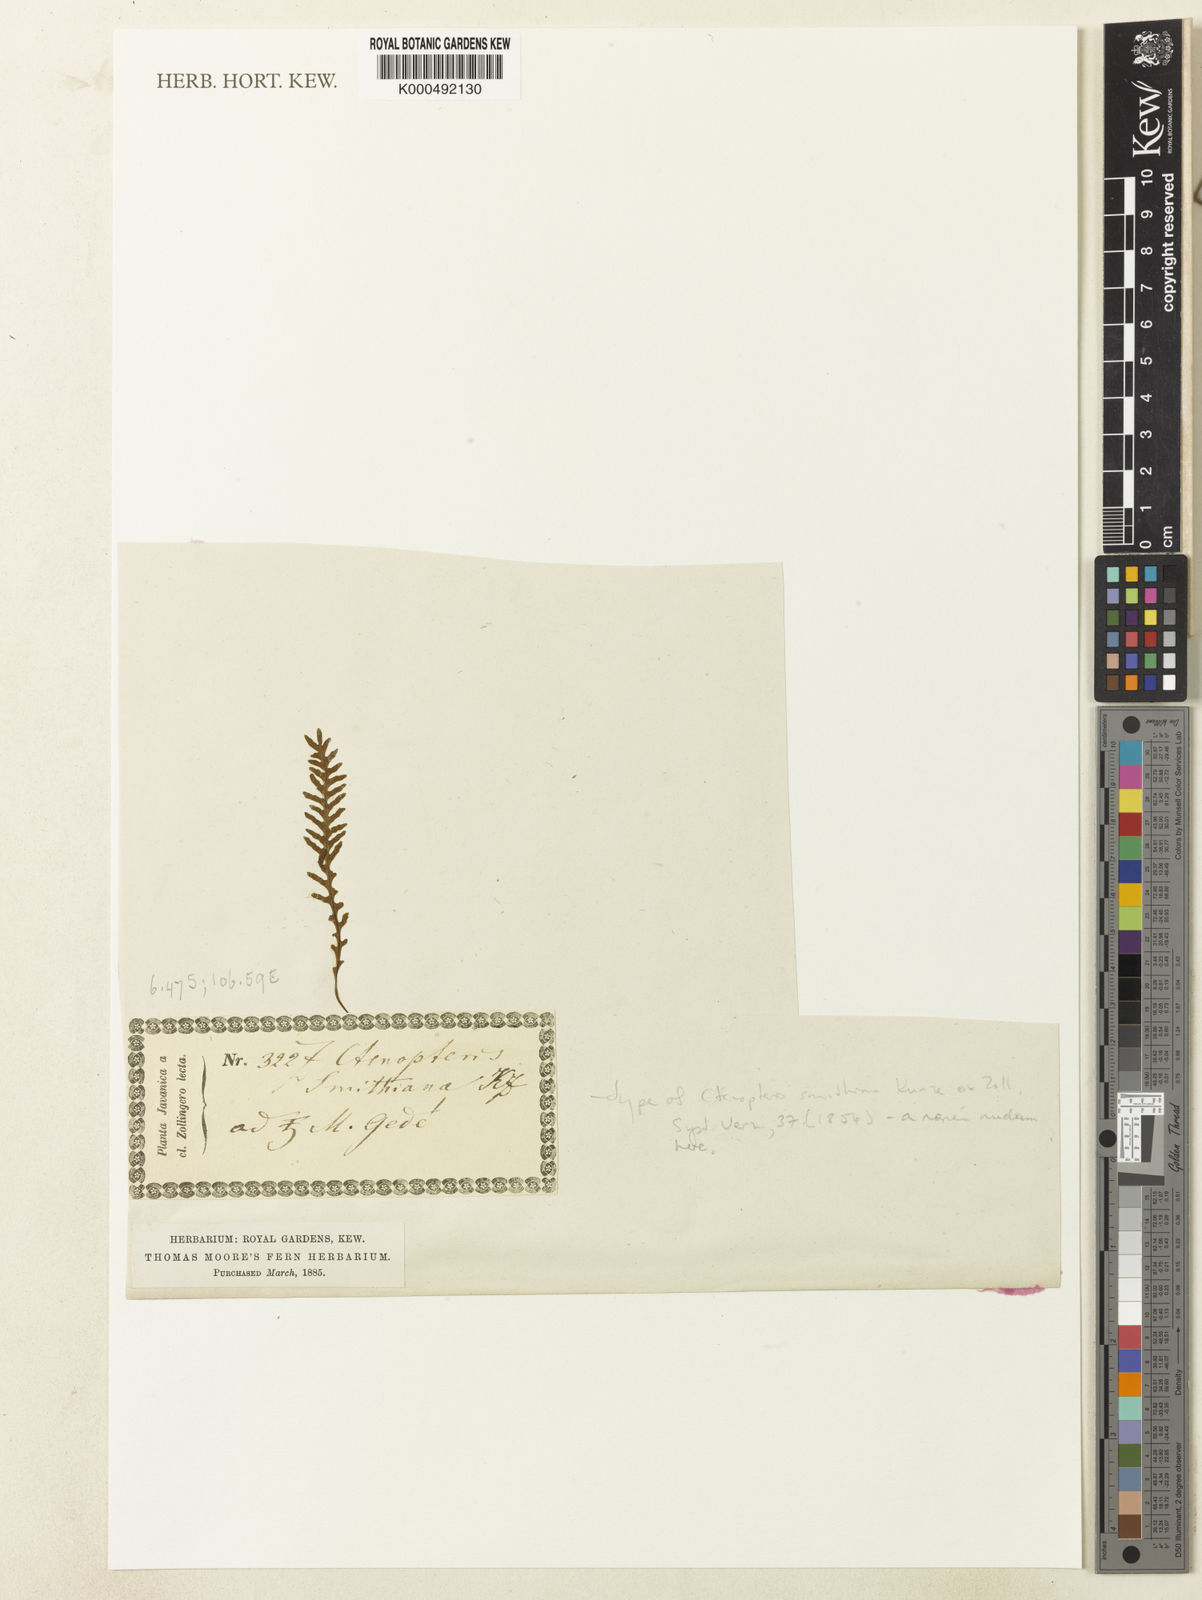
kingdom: Plantae
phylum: Tracheophyta
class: Polypodiopsida
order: Polypodiales
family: Polypodiaceae
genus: Tomophyllum
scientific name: Tomophyllum repandulum
